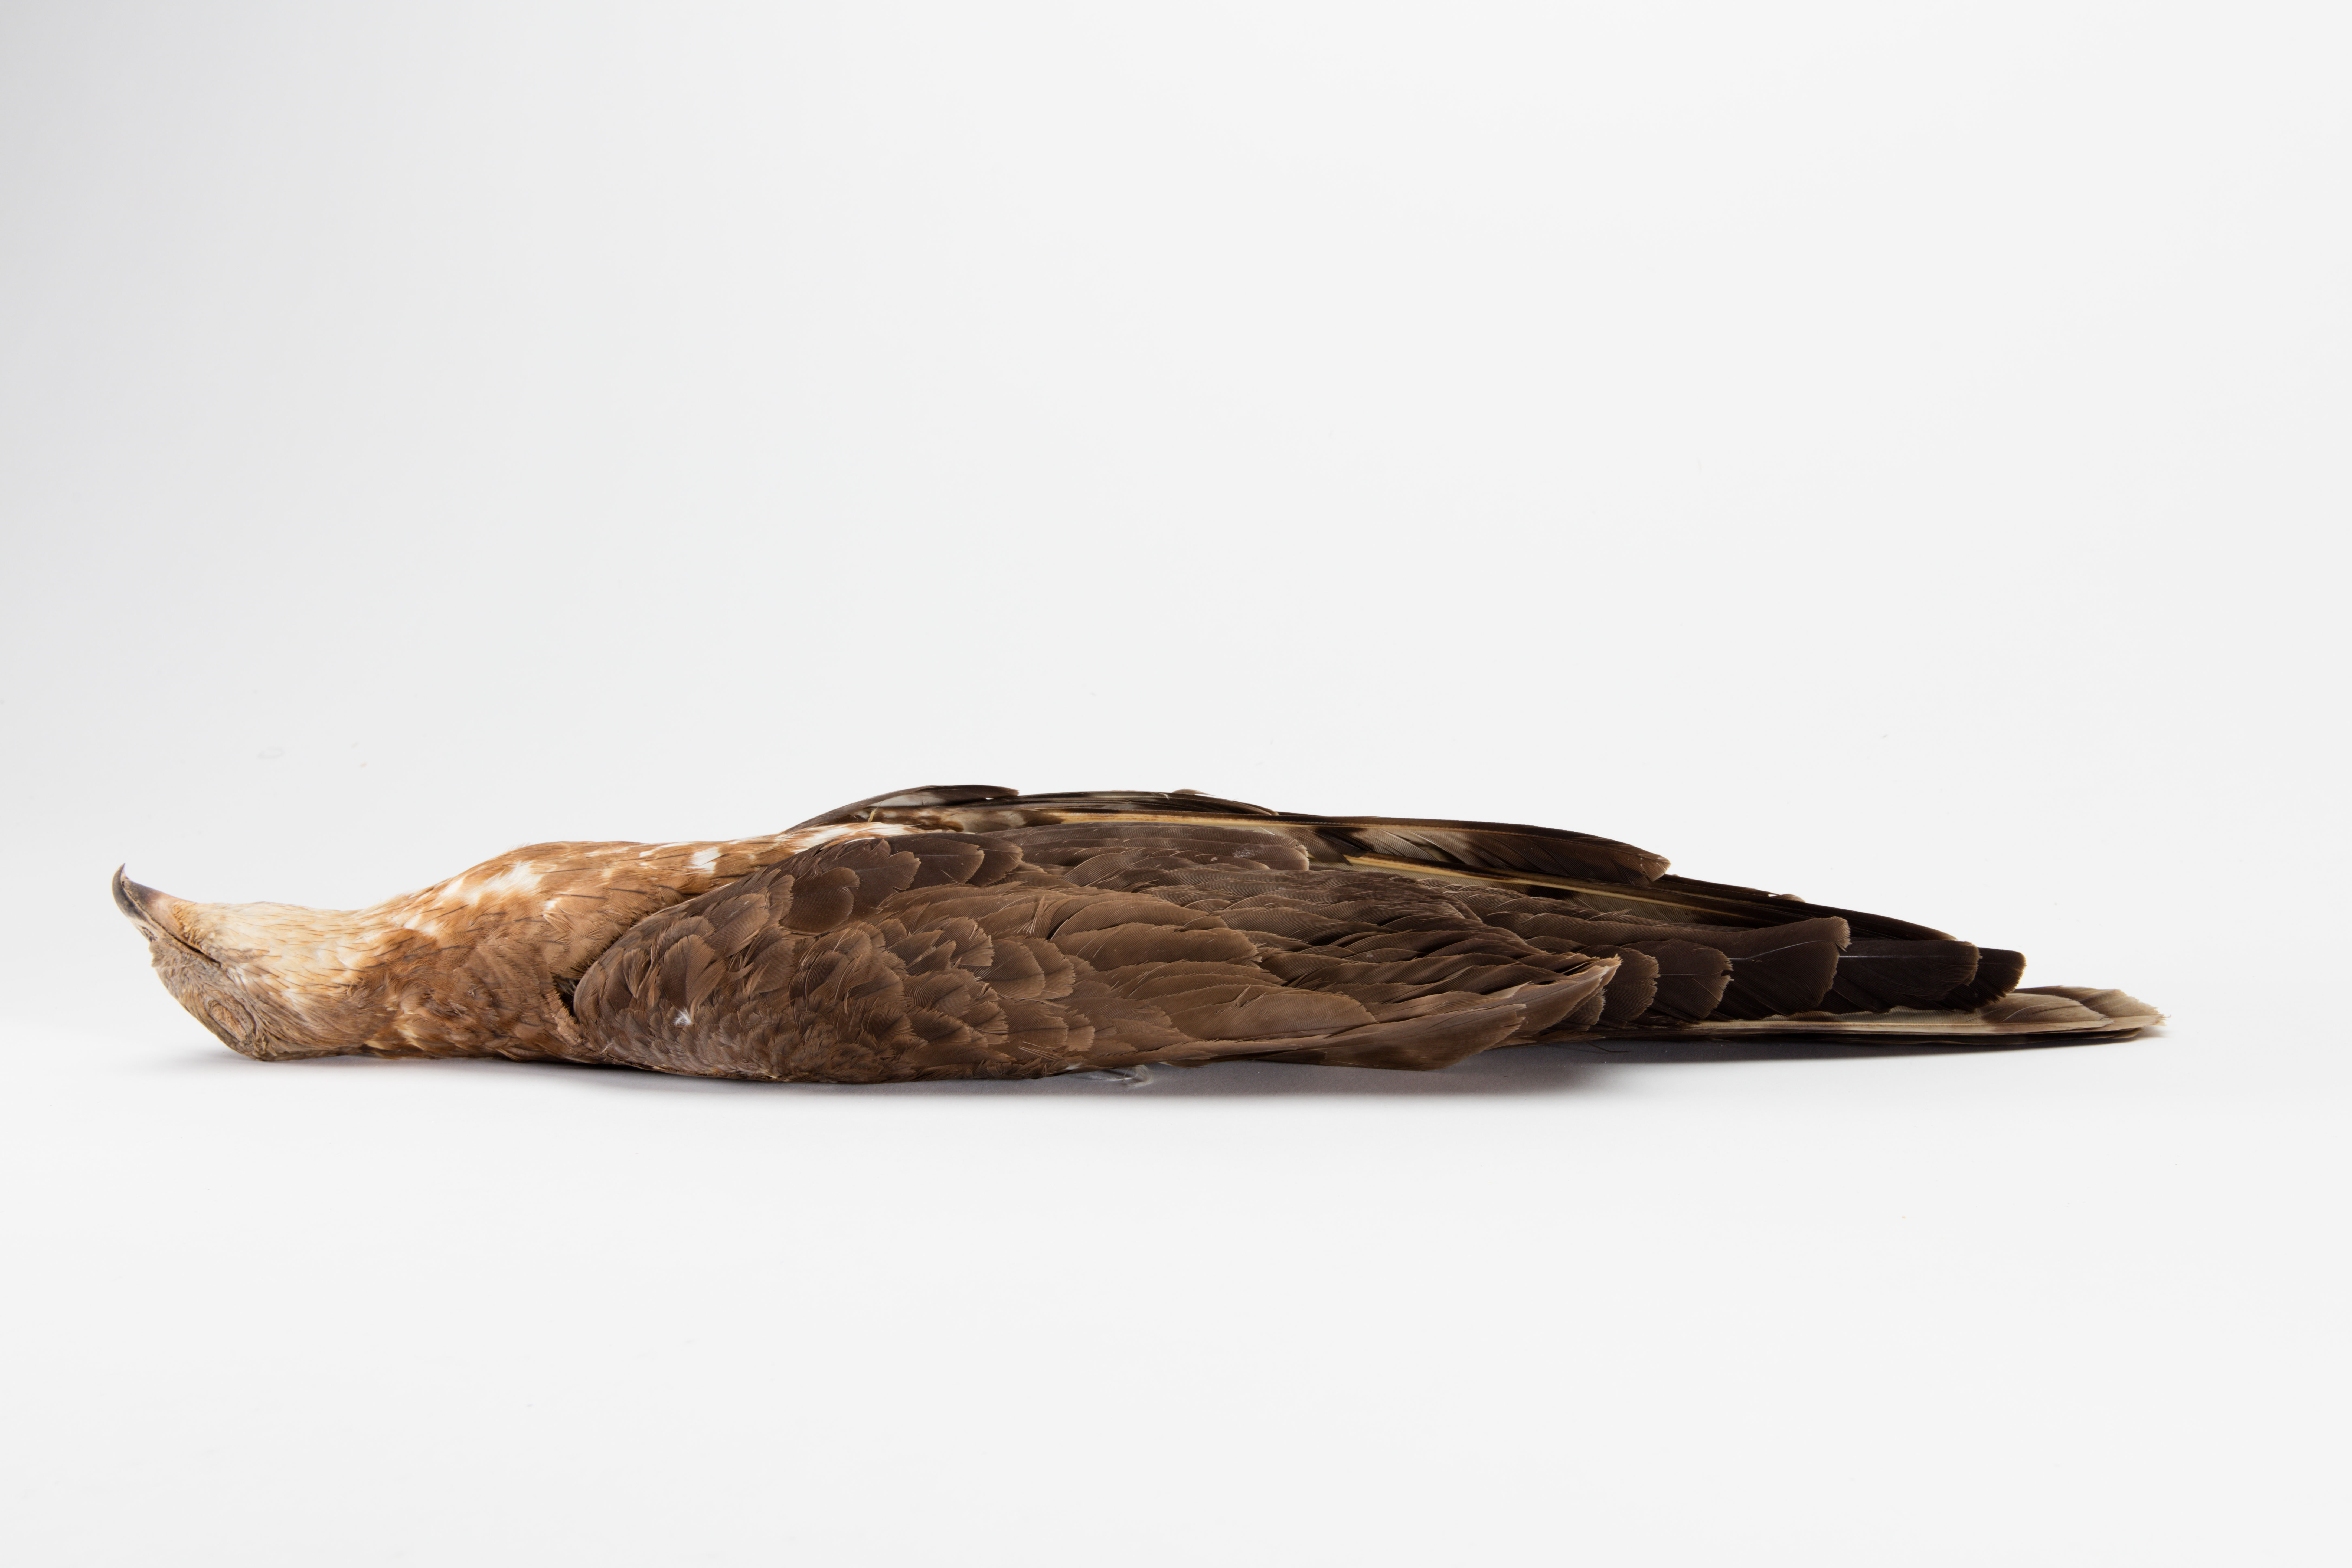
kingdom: Animalia
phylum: Chordata
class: Aves
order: Accipitriformes
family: Accipitridae
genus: Pernis
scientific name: Pernis apivorus
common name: European honey buzzard
